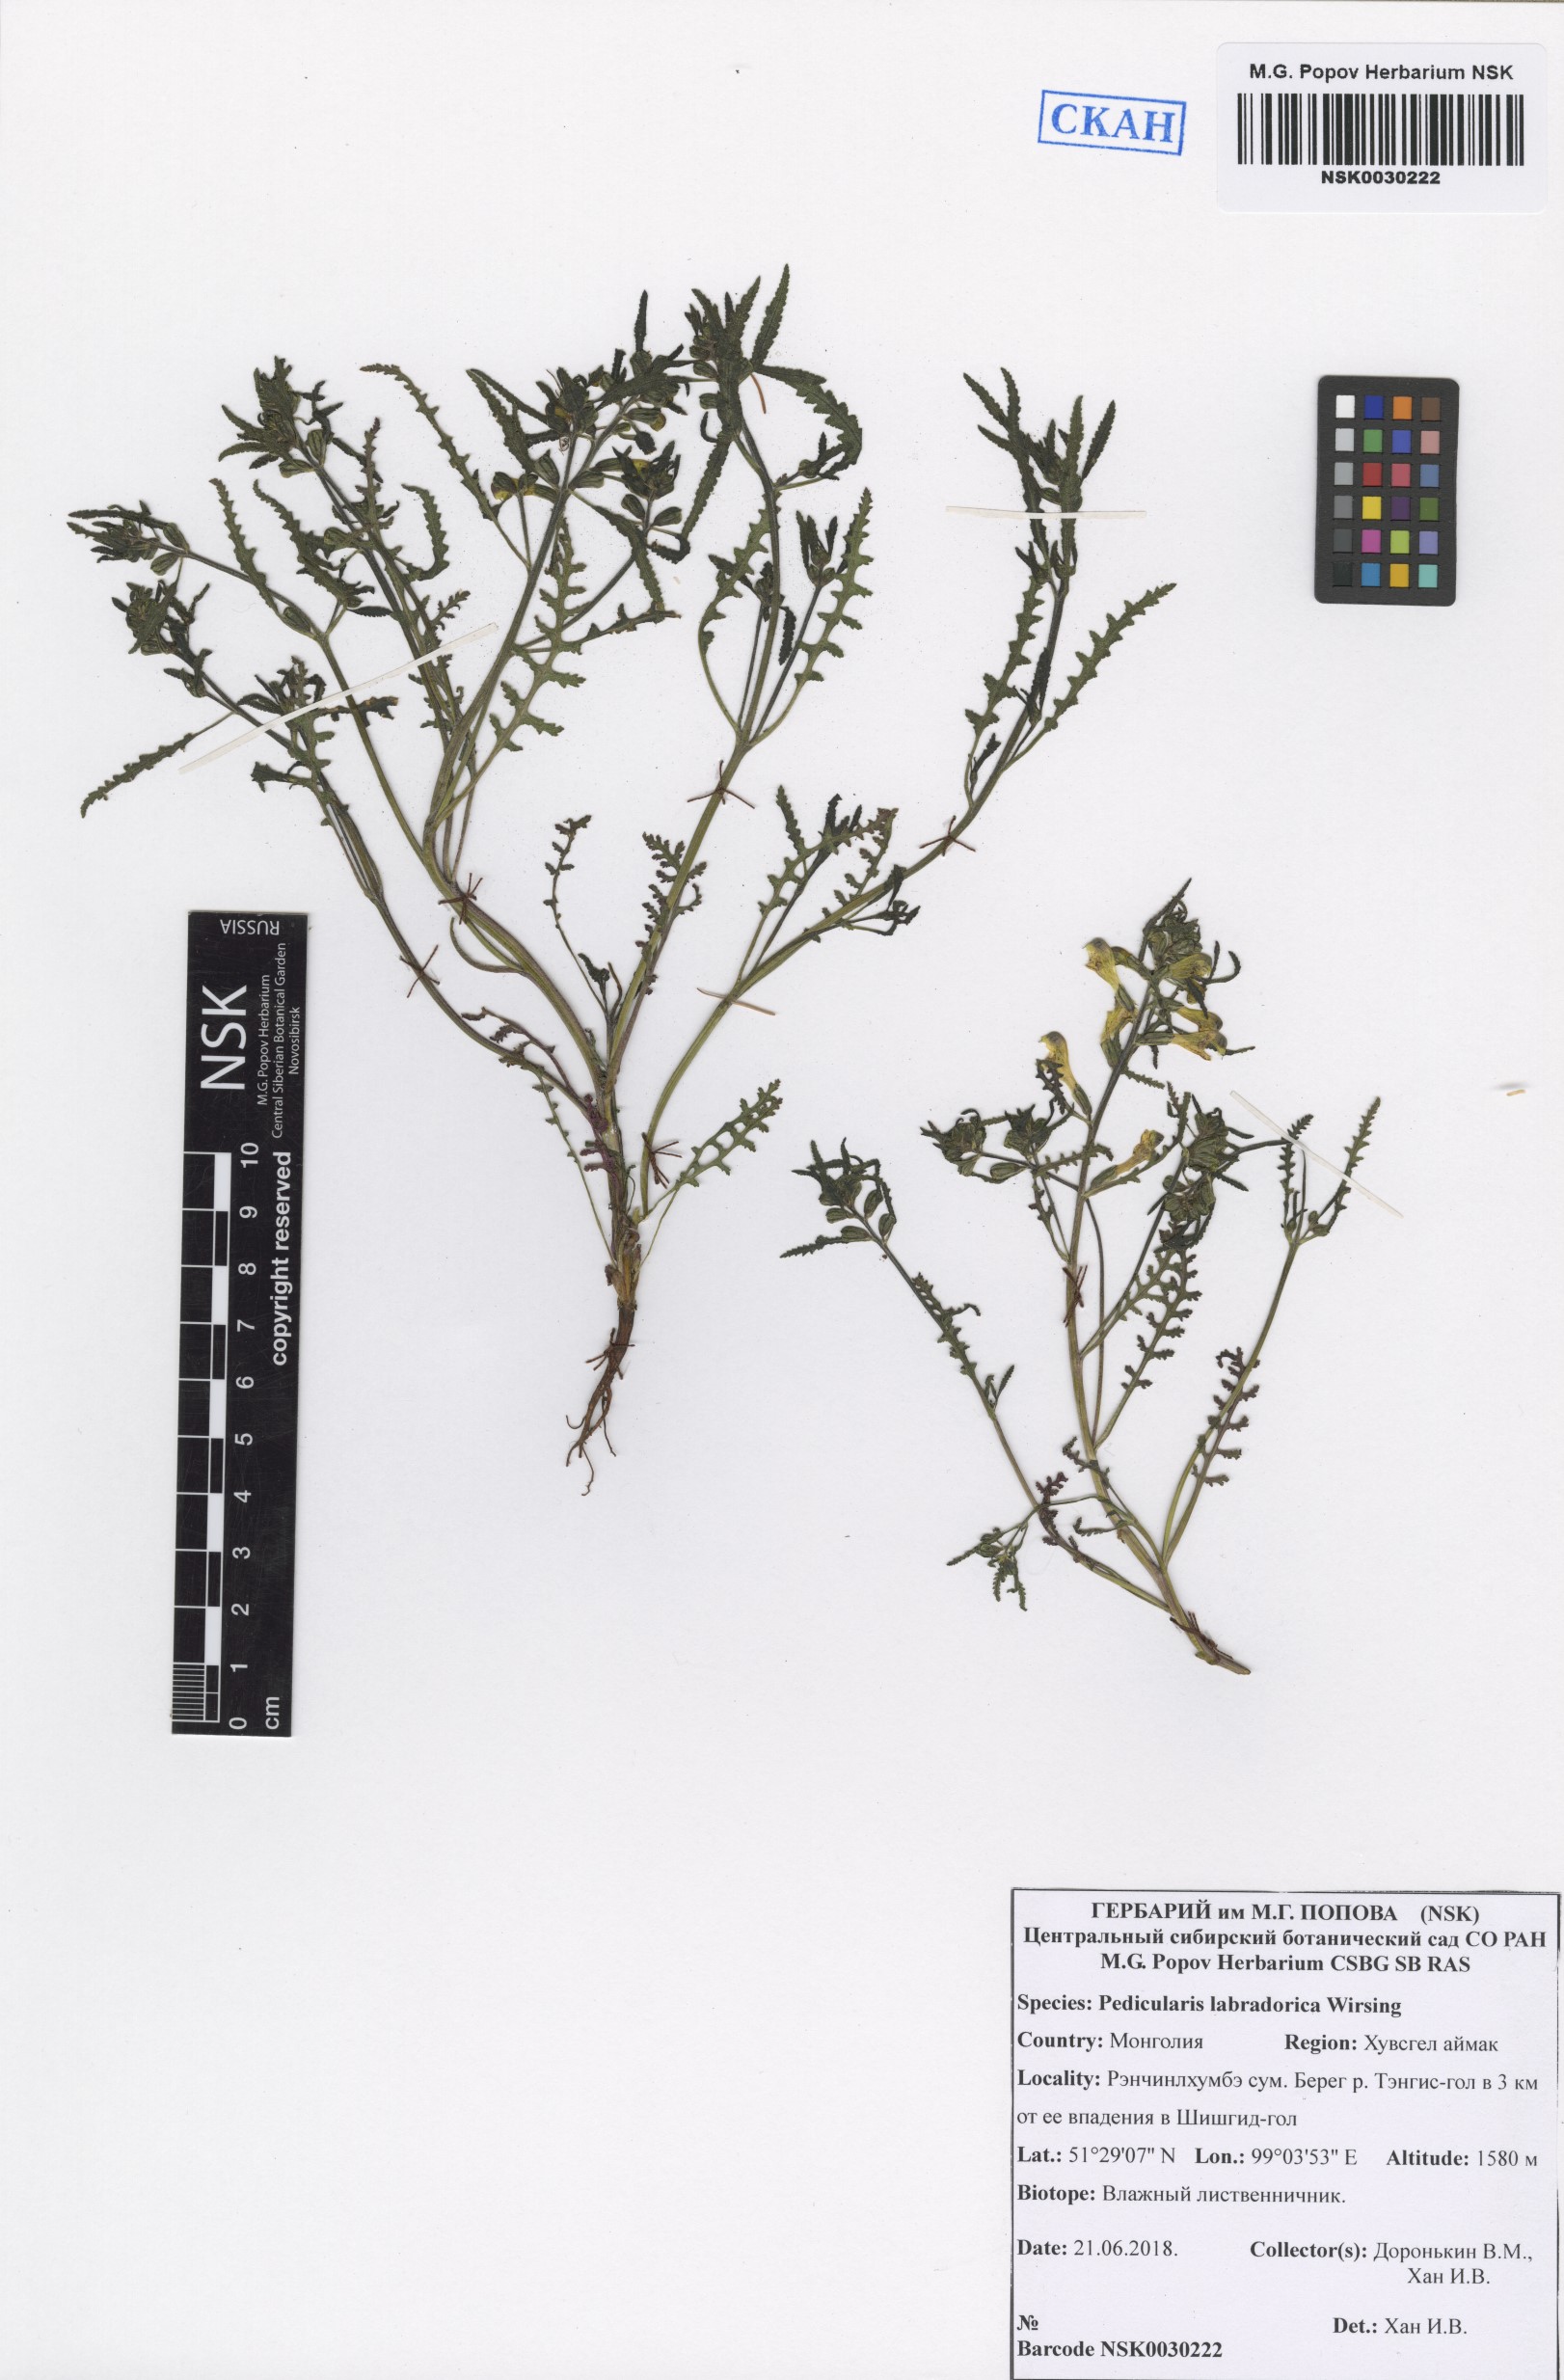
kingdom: Plantae
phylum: Tracheophyta
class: Magnoliopsida
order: Lamiales
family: Orobanchaceae
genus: Pedicularis
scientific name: Pedicularis labradorica
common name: Labrador lousewort
